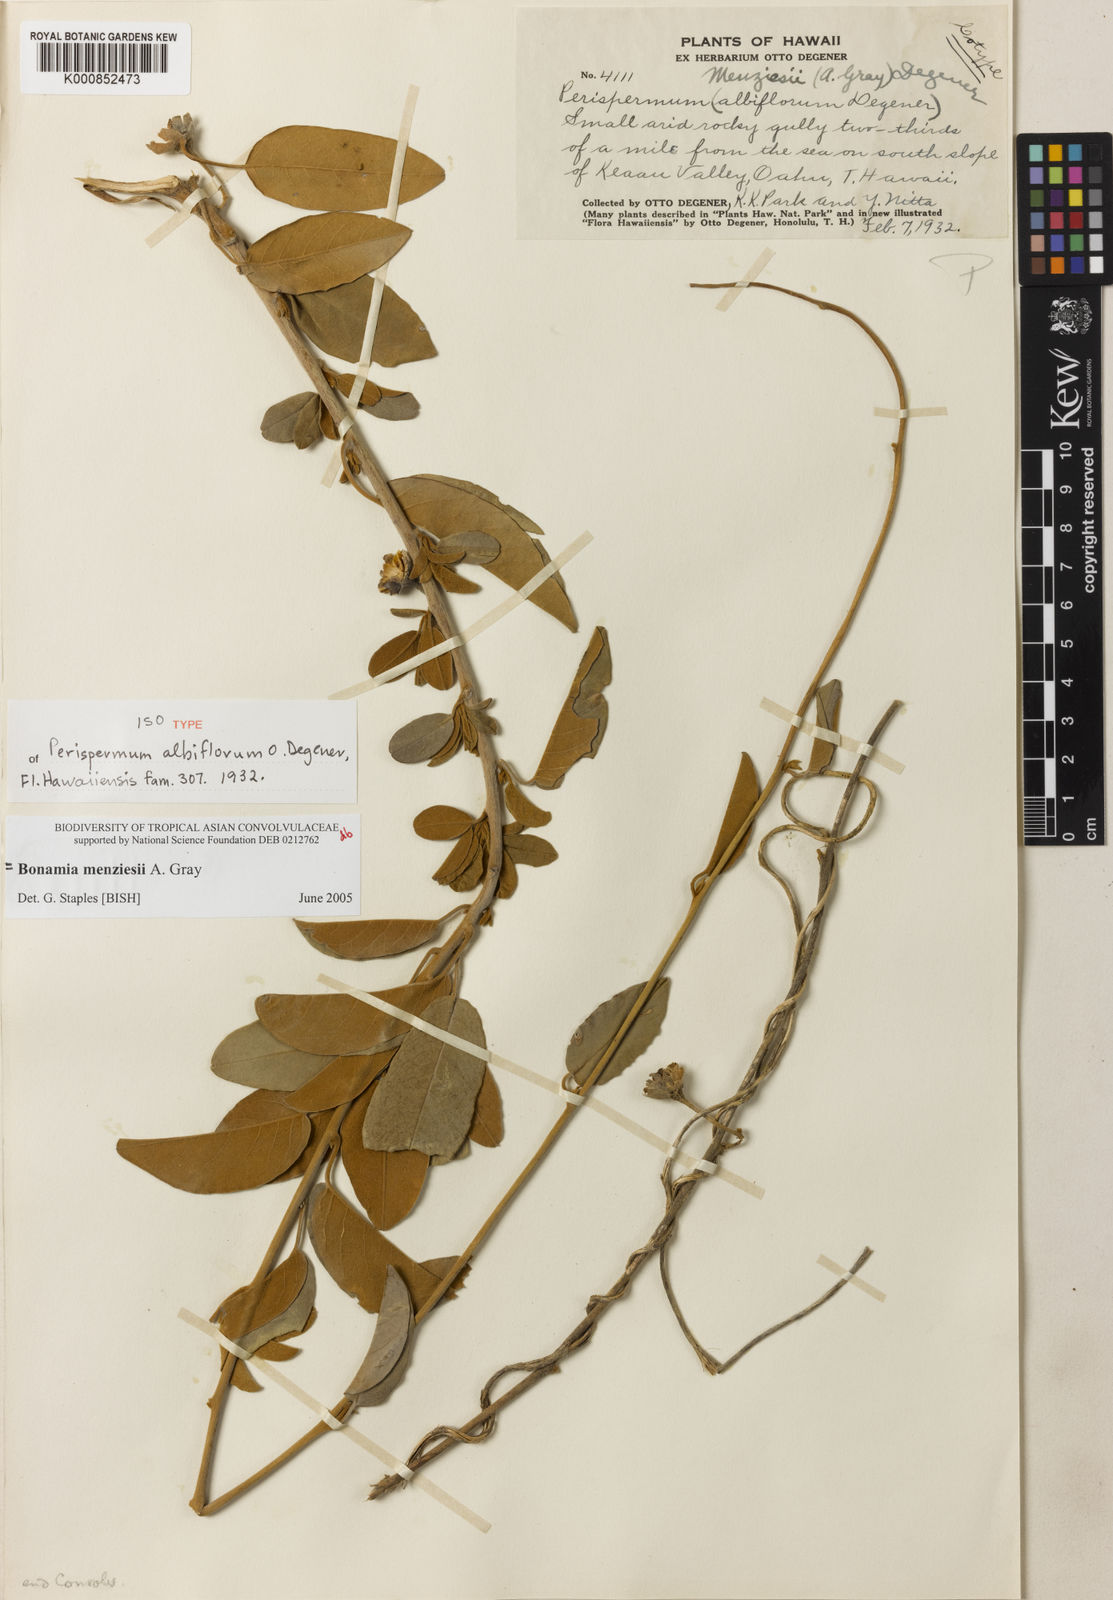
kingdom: Plantae
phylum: Tracheophyta
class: Magnoliopsida
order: Solanales
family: Convolvulaceae
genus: Bonamia
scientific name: Bonamia menziesii
